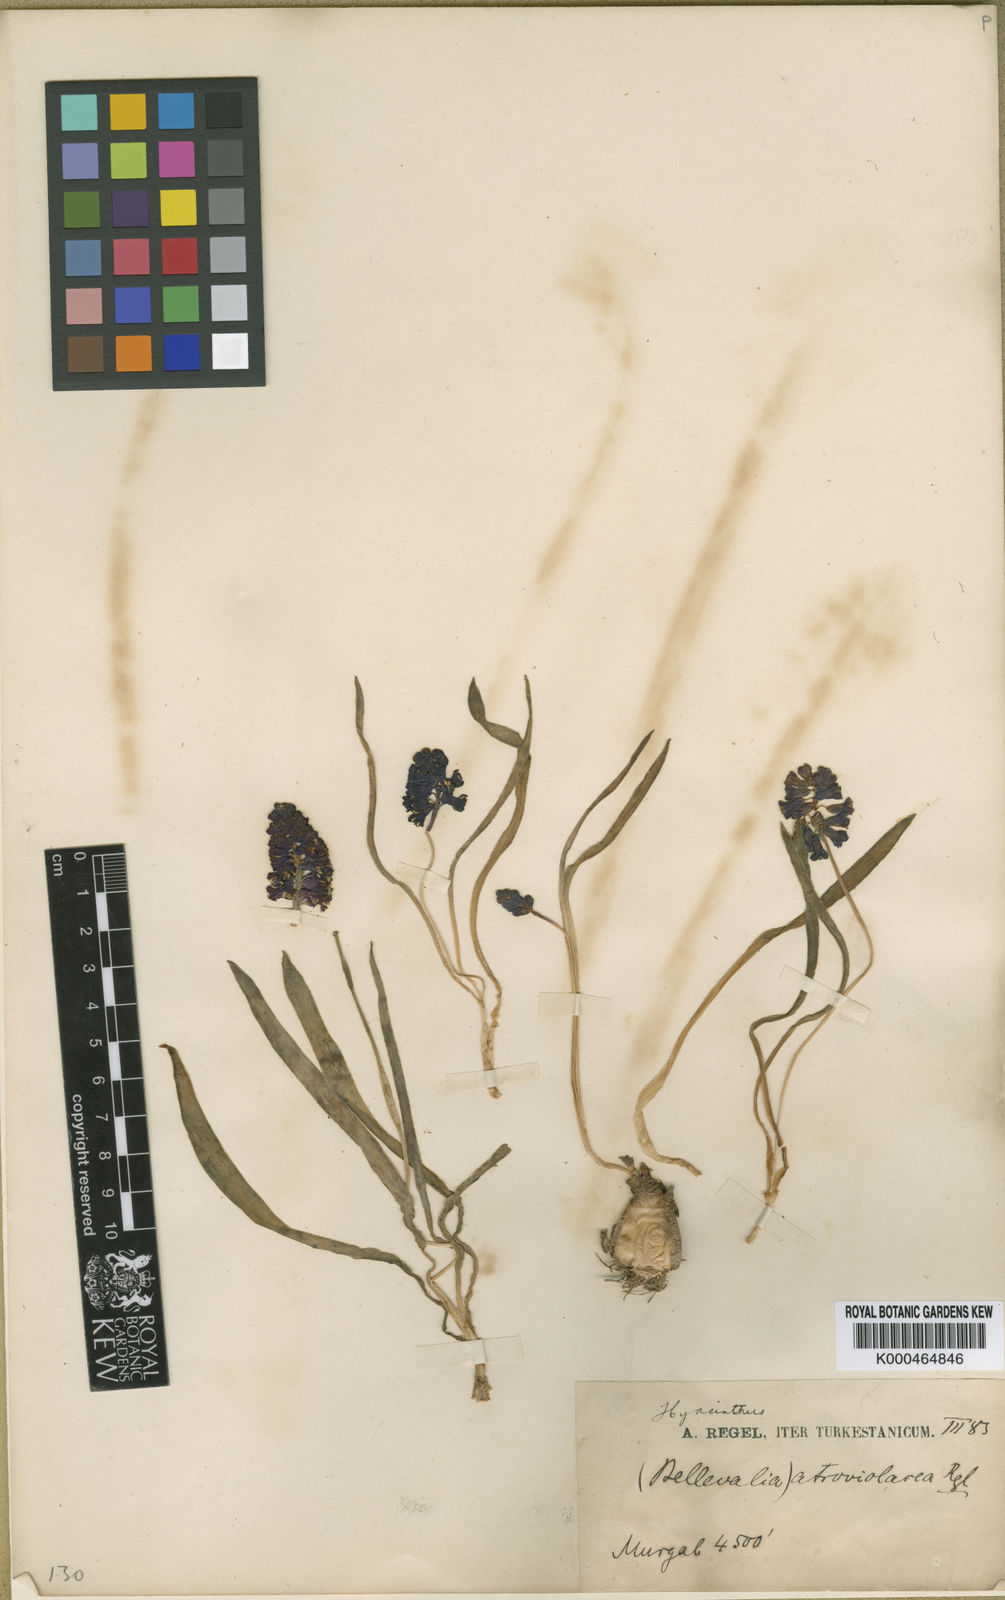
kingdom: Plantae
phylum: Tracheophyta
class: Liliopsida
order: Asparagales
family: Asparagaceae
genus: Bellevalia
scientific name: Bellevalia turkestanica
